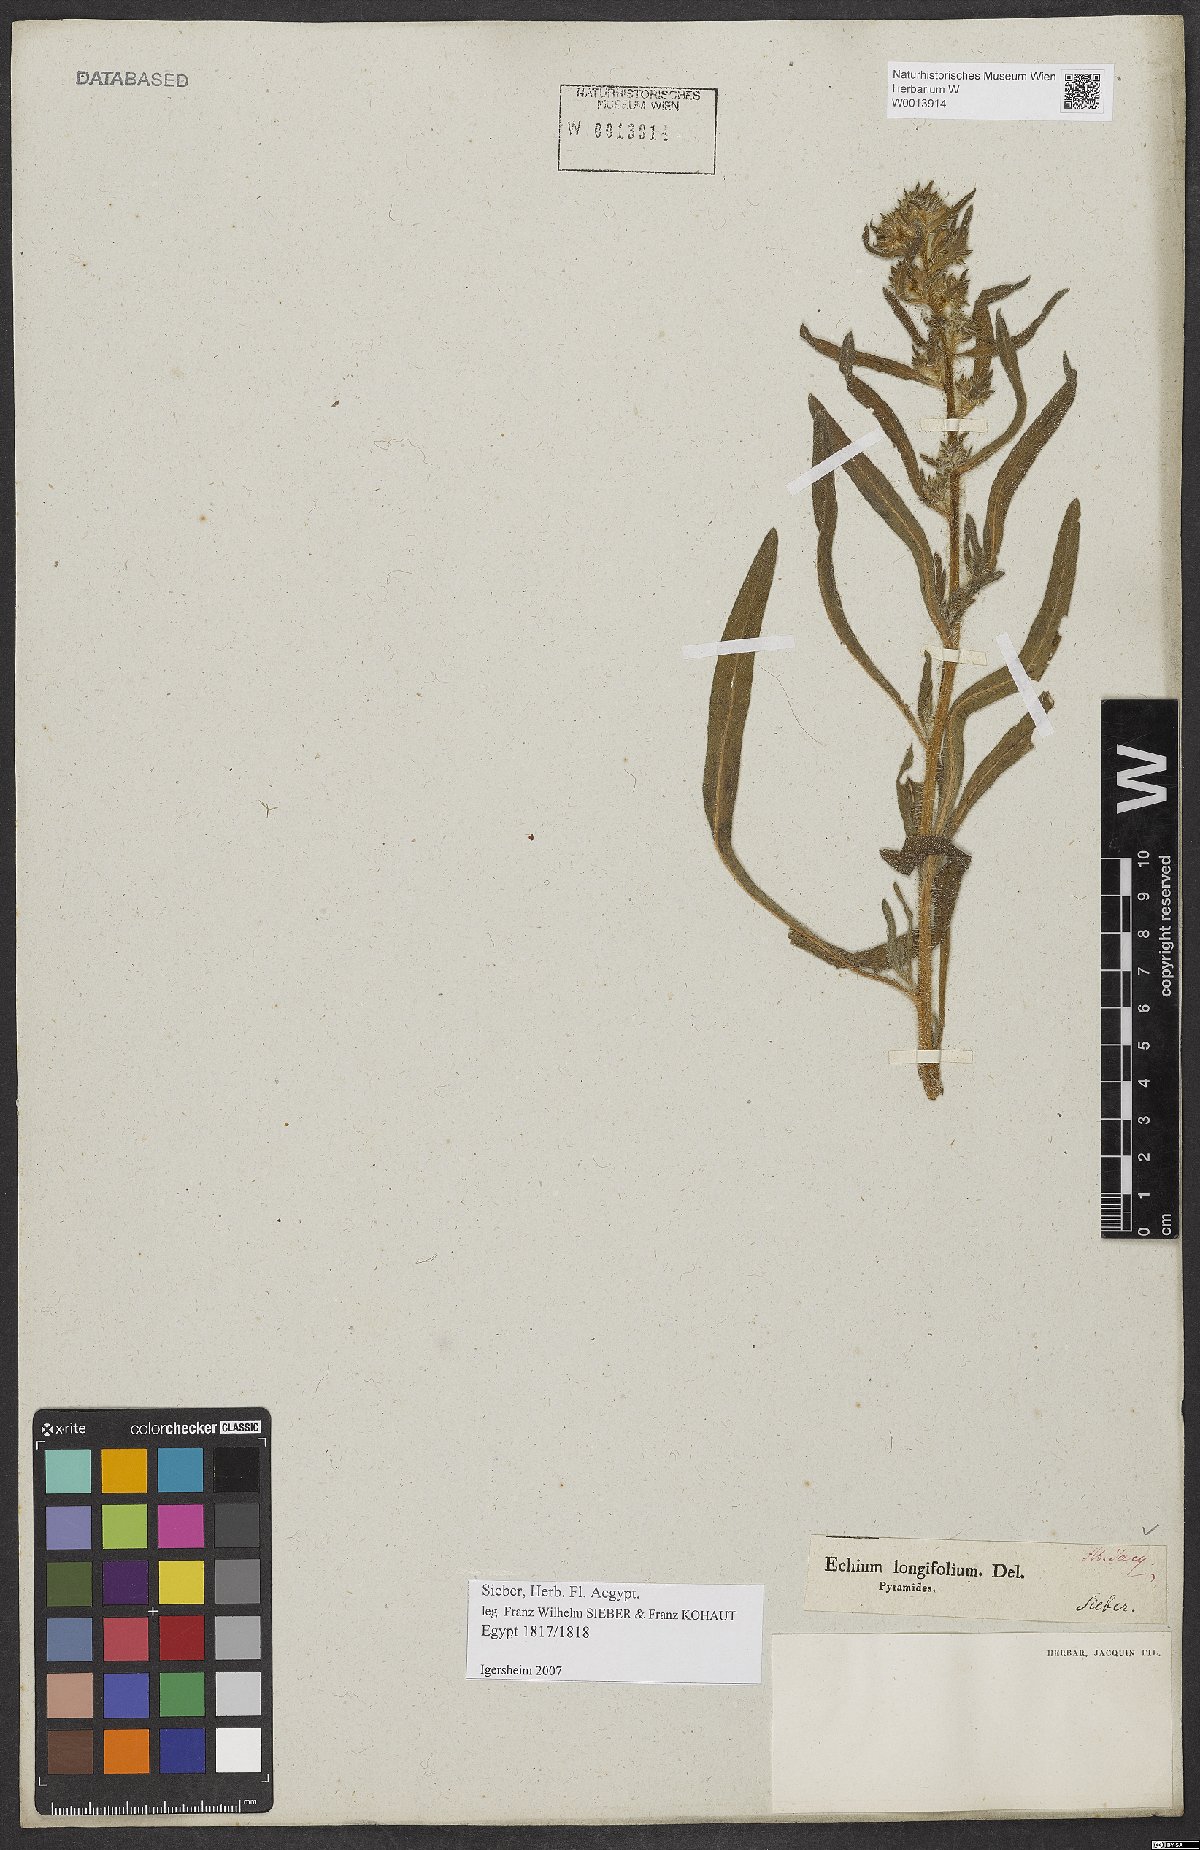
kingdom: Plantae
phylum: Tracheophyta
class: Magnoliopsida
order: Boraginales
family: Boraginaceae
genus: Echium
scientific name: Echium longifolium
